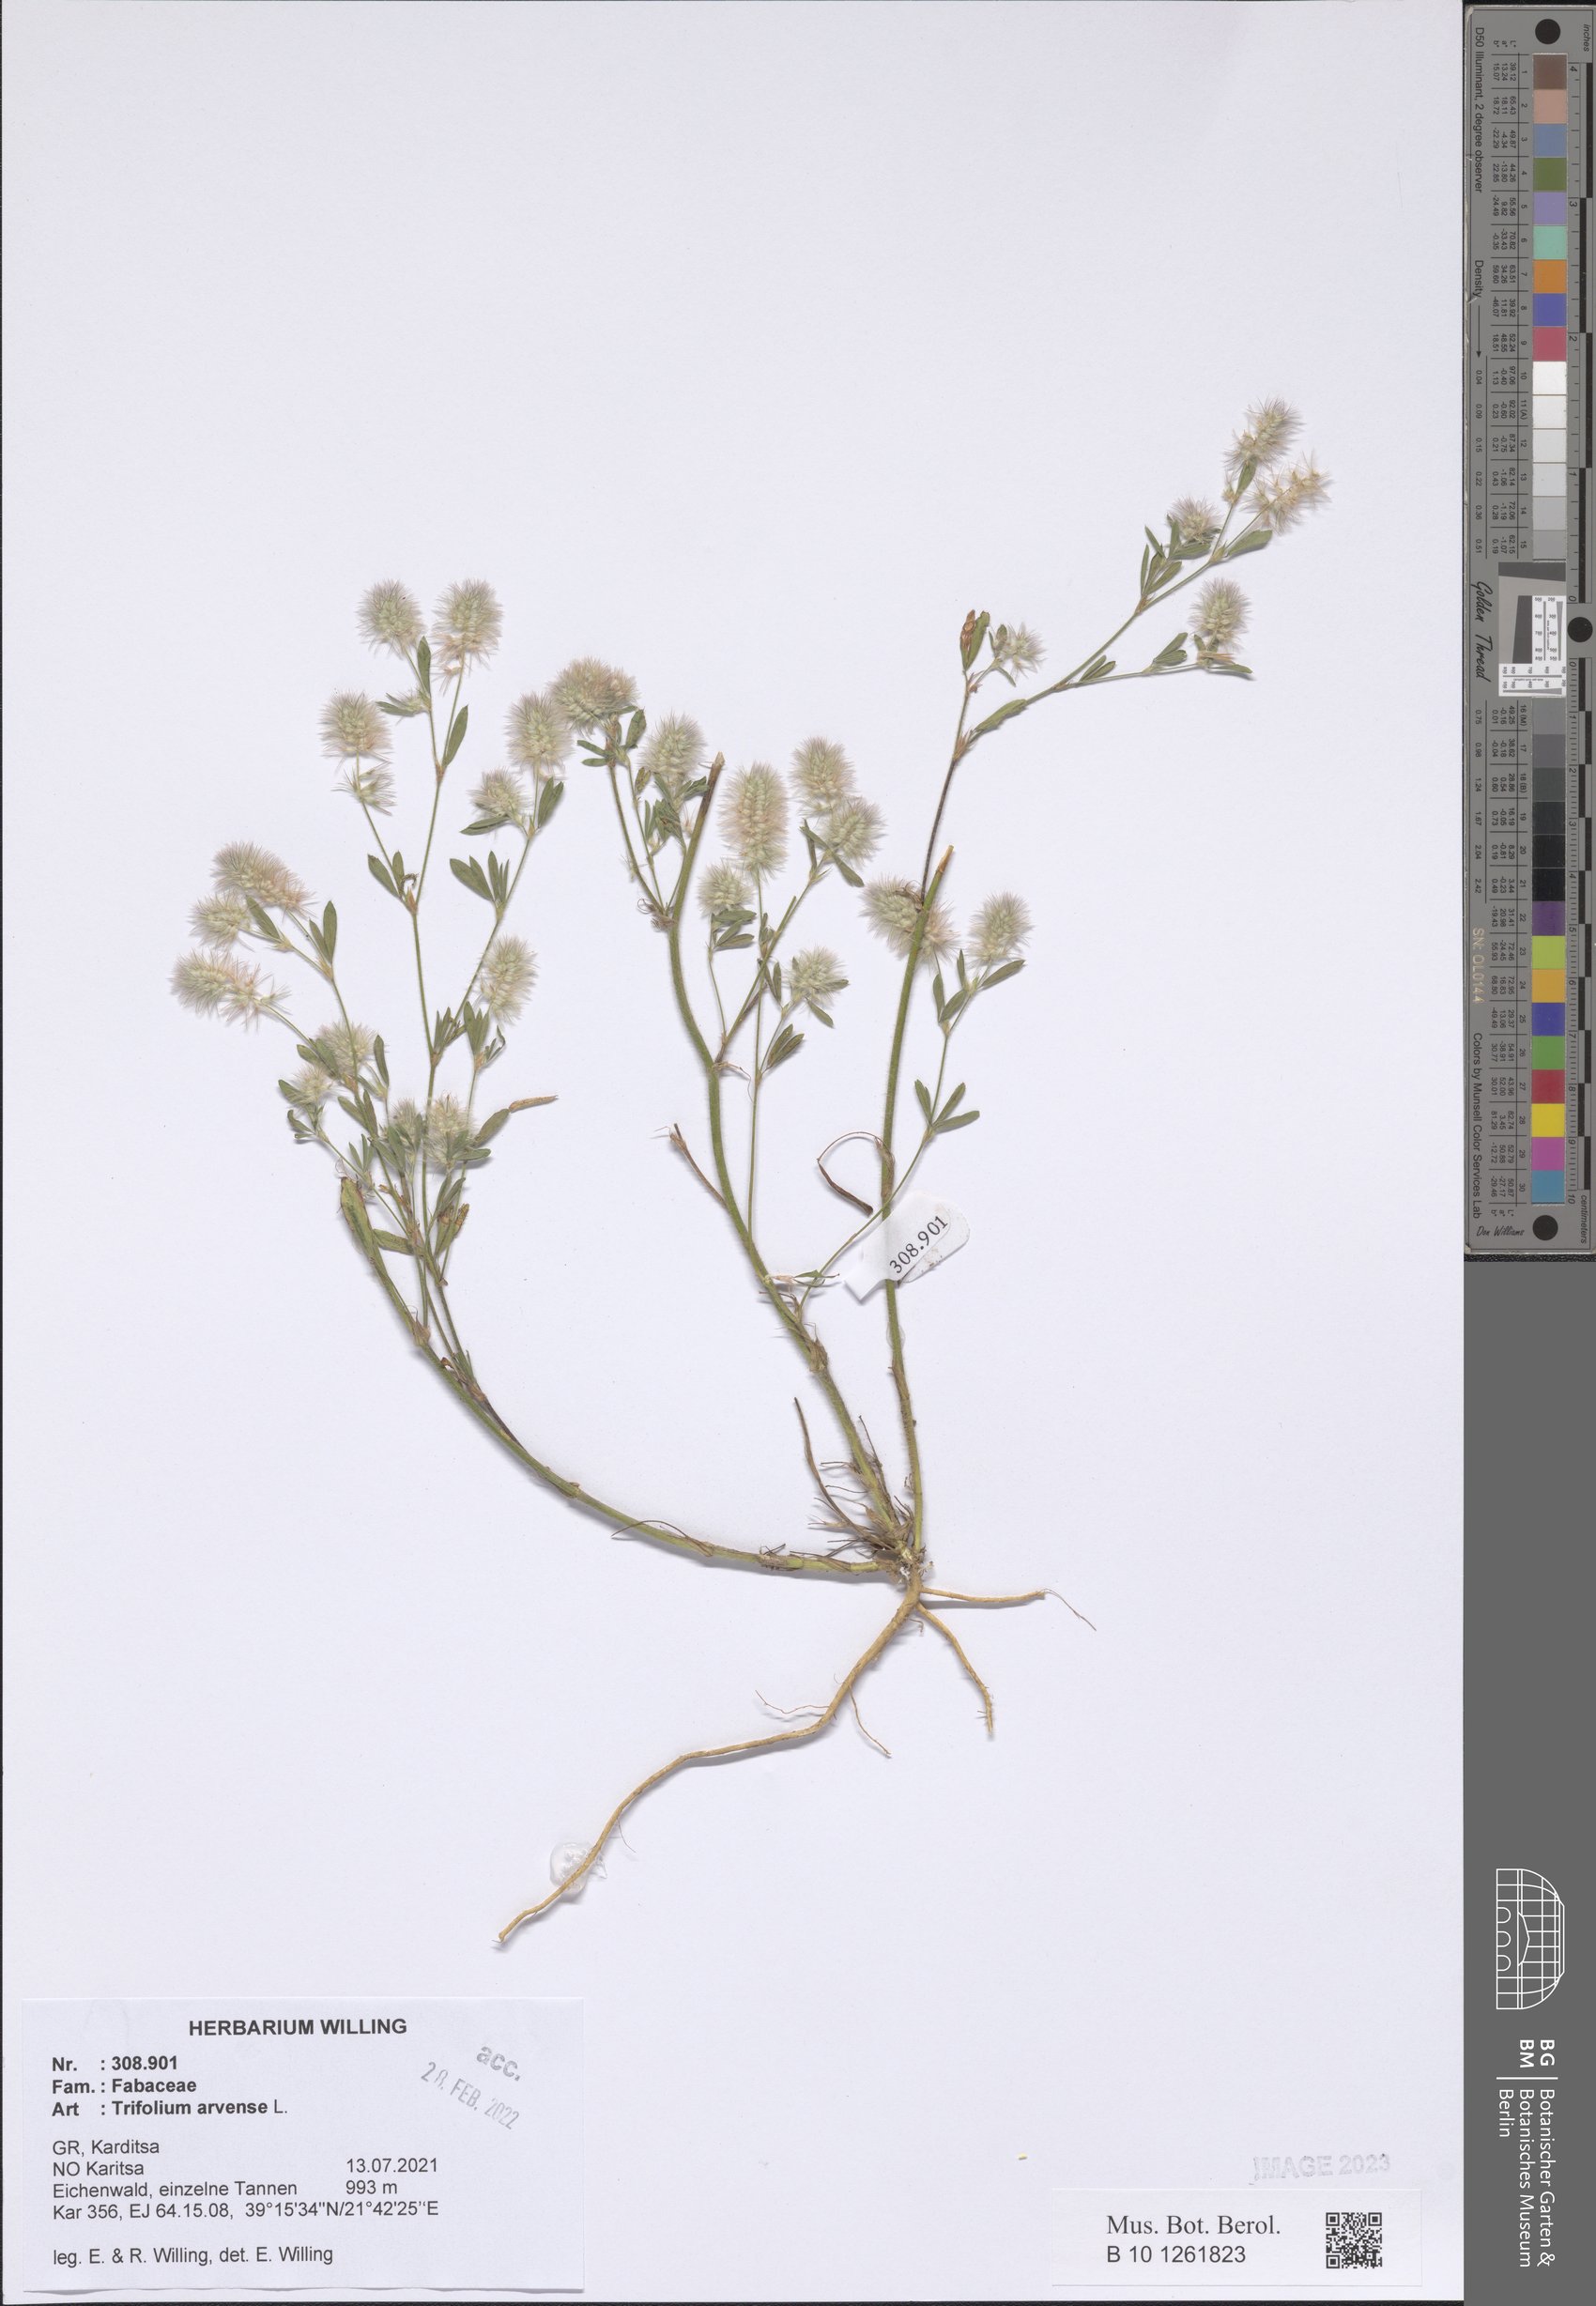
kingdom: Plantae
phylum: Tracheophyta
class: Magnoliopsida
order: Fabales
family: Fabaceae
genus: Trifolium
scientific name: Trifolium arvense
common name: Hare's-foot clover
